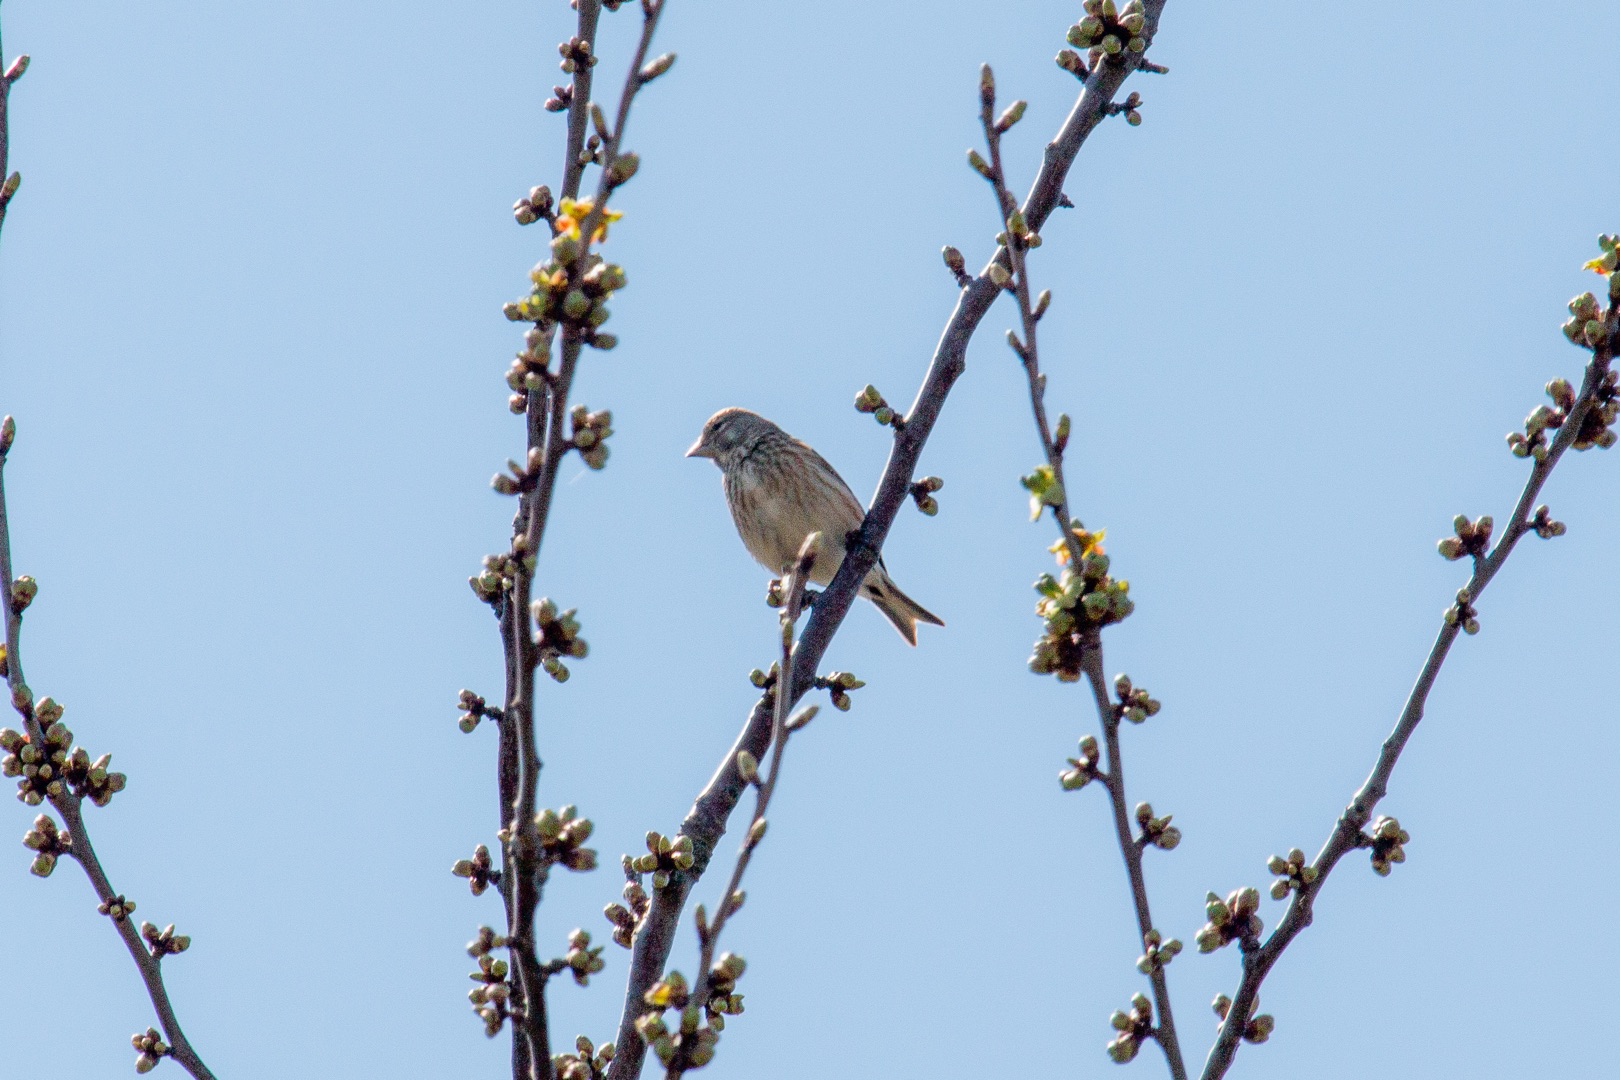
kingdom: Animalia
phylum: Chordata
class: Aves
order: Passeriformes
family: Fringillidae
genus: Linaria
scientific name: Linaria cannabina
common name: Tornirisk
